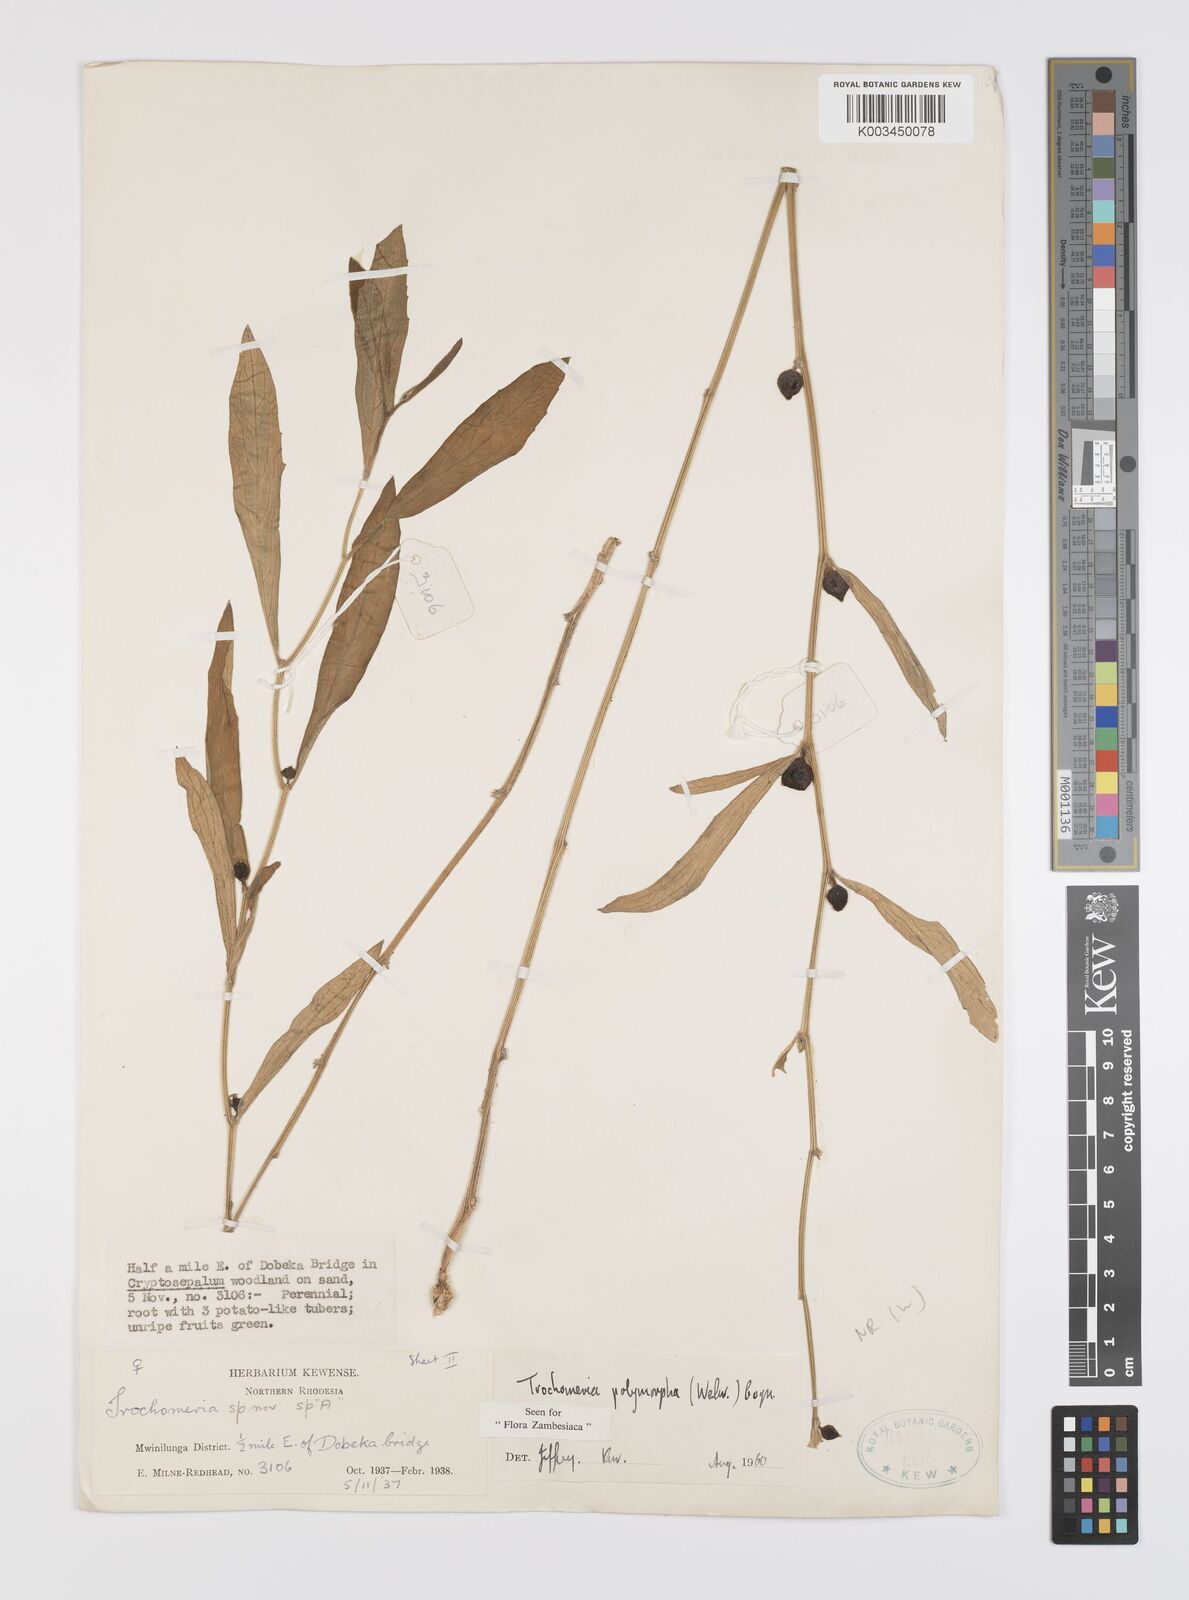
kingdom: Plantae
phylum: Tracheophyta
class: Magnoliopsida
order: Cucurbitales
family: Cucurbitaceae
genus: Trochomeria
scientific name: Trochomeria polymorpha
